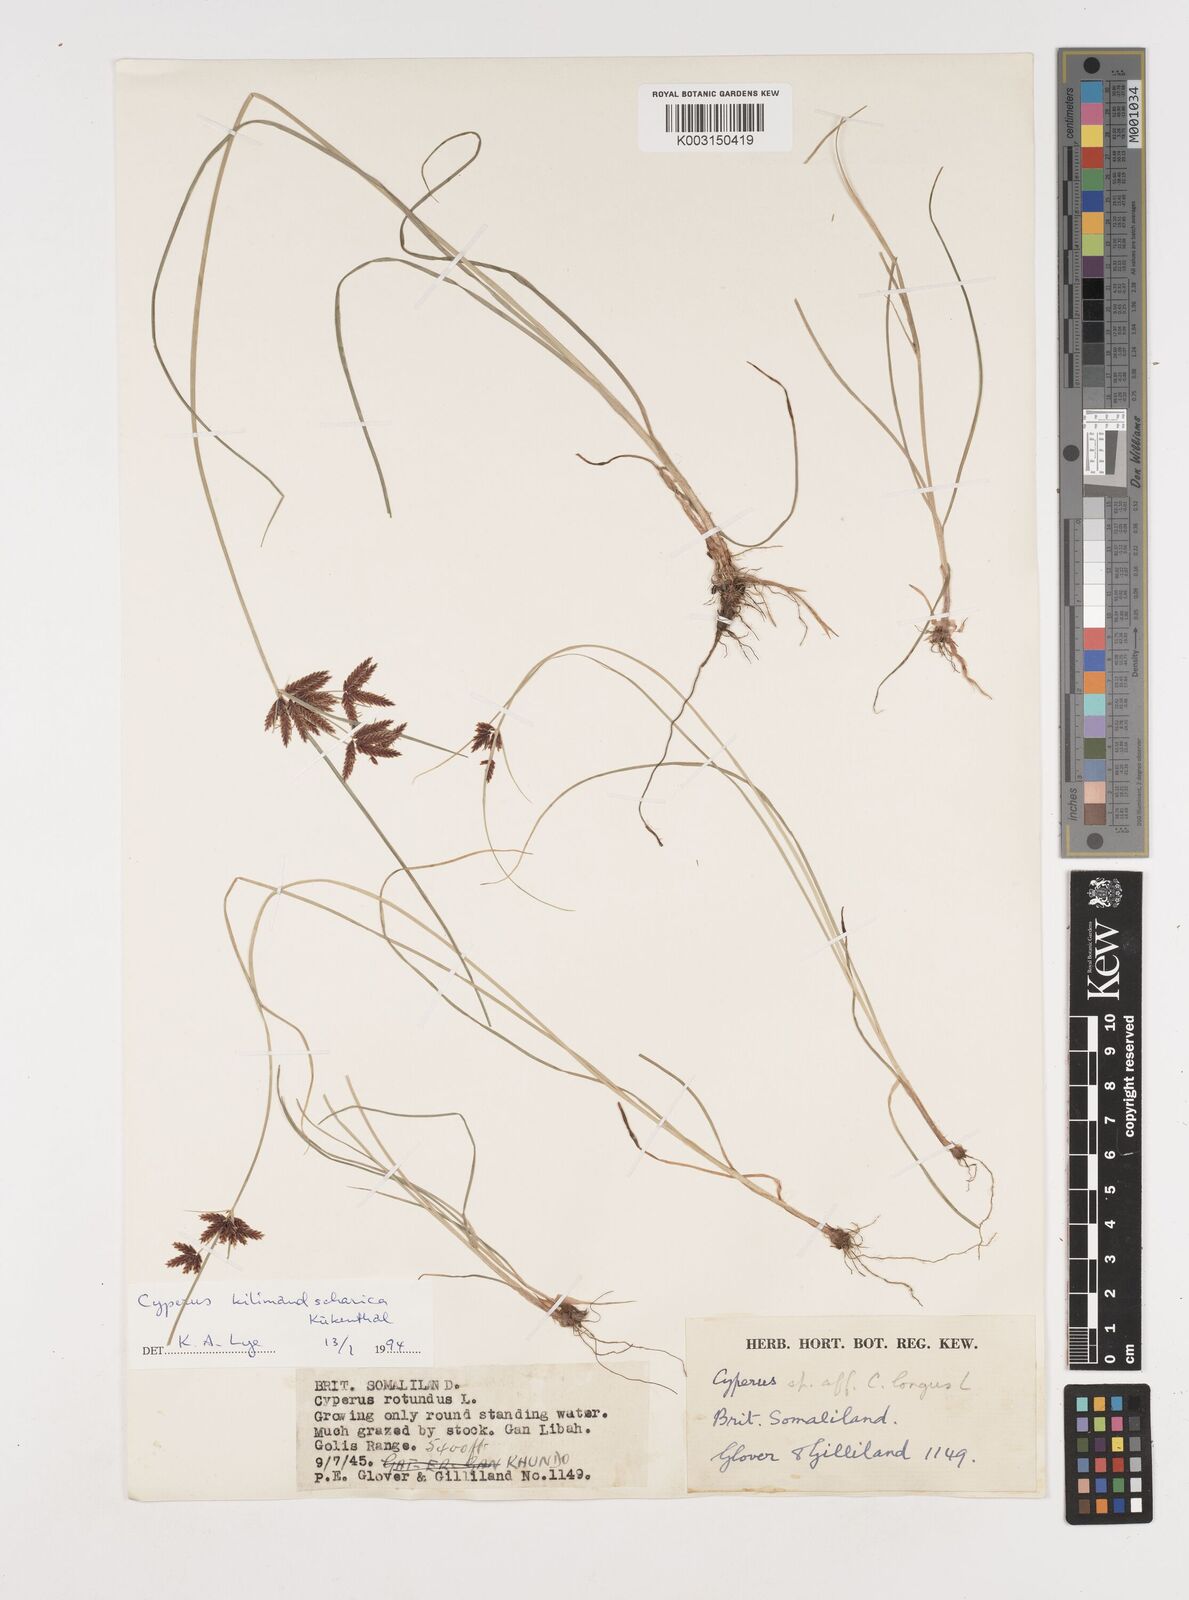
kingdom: Plantae
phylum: Tracheophyta
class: Liliopsida
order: Poales
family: Cyperaceae
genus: Cyperus
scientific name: Cyperus kilimandscharicus
